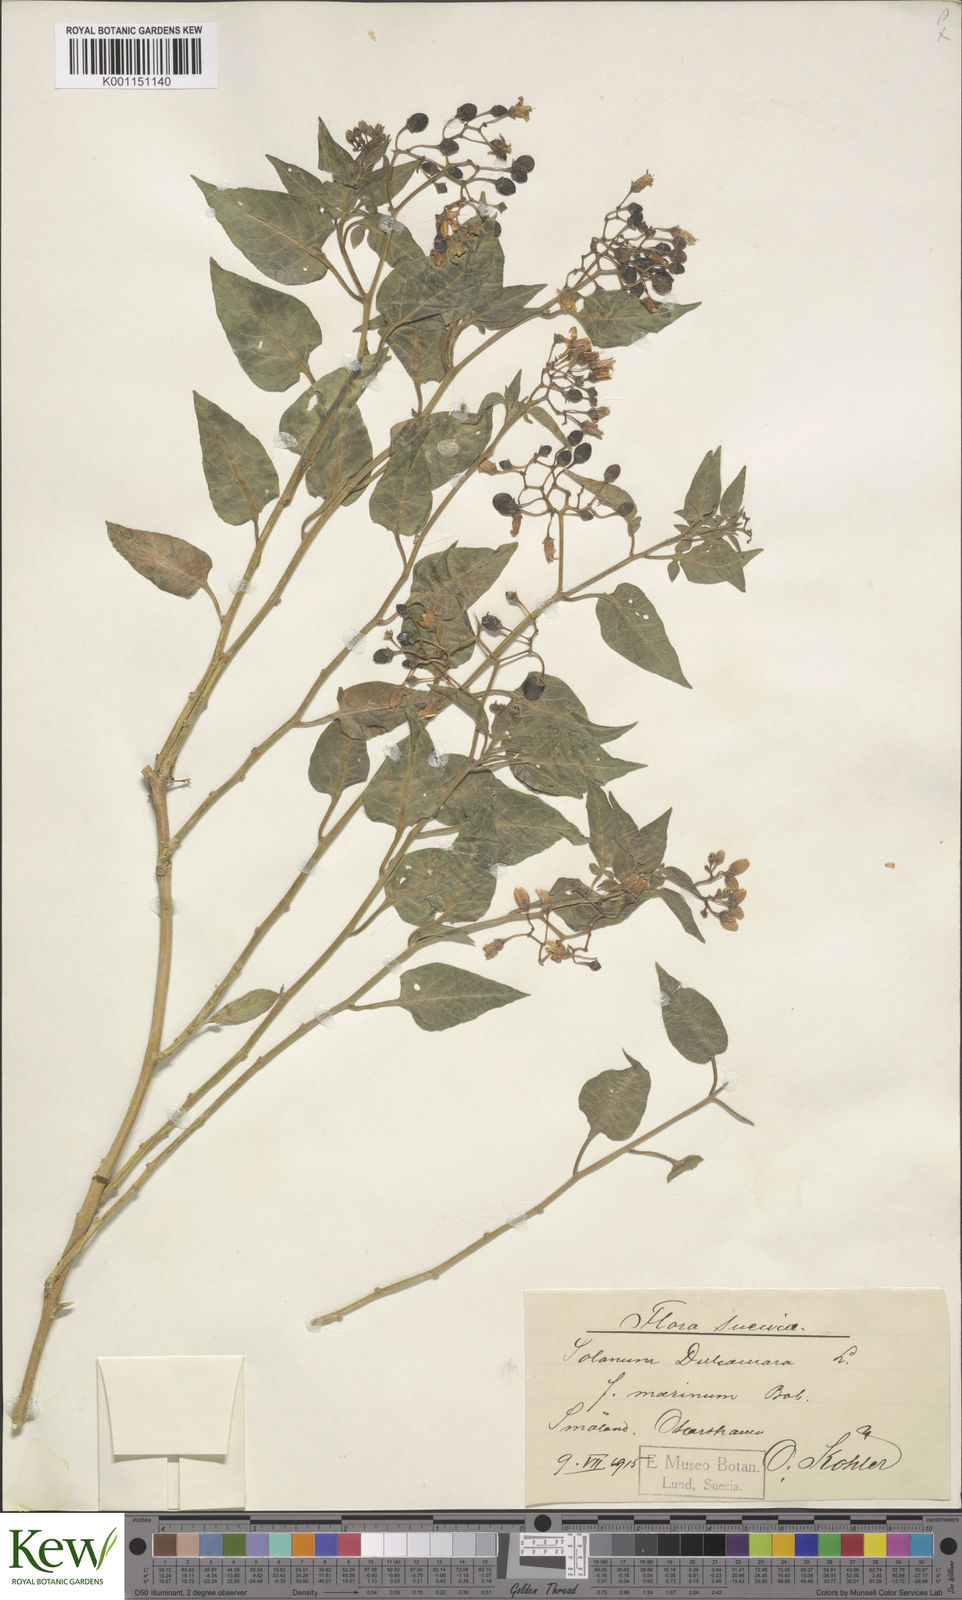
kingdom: Plantae
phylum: Tracheophyta
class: Magnoliopsida
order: Solanales
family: Solanaceae
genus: Solanum
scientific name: Solanum dulcamara
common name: Climbing nightshade
